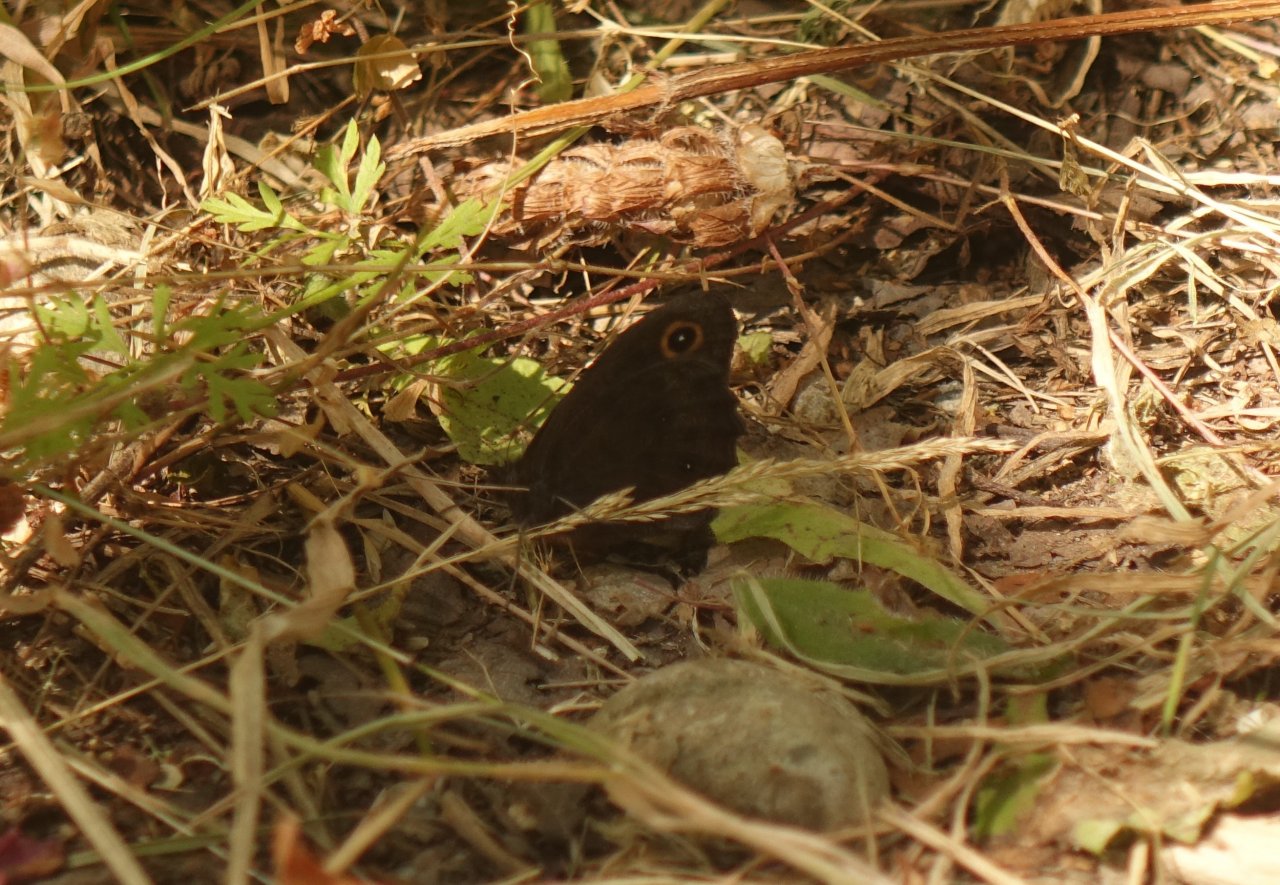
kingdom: Animalia
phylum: Arthropoda
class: Insecta
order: Lepidoptera
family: Nymphalidae
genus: Cercyonis
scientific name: Cercyonis pegala
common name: Common Wood-Nymph
